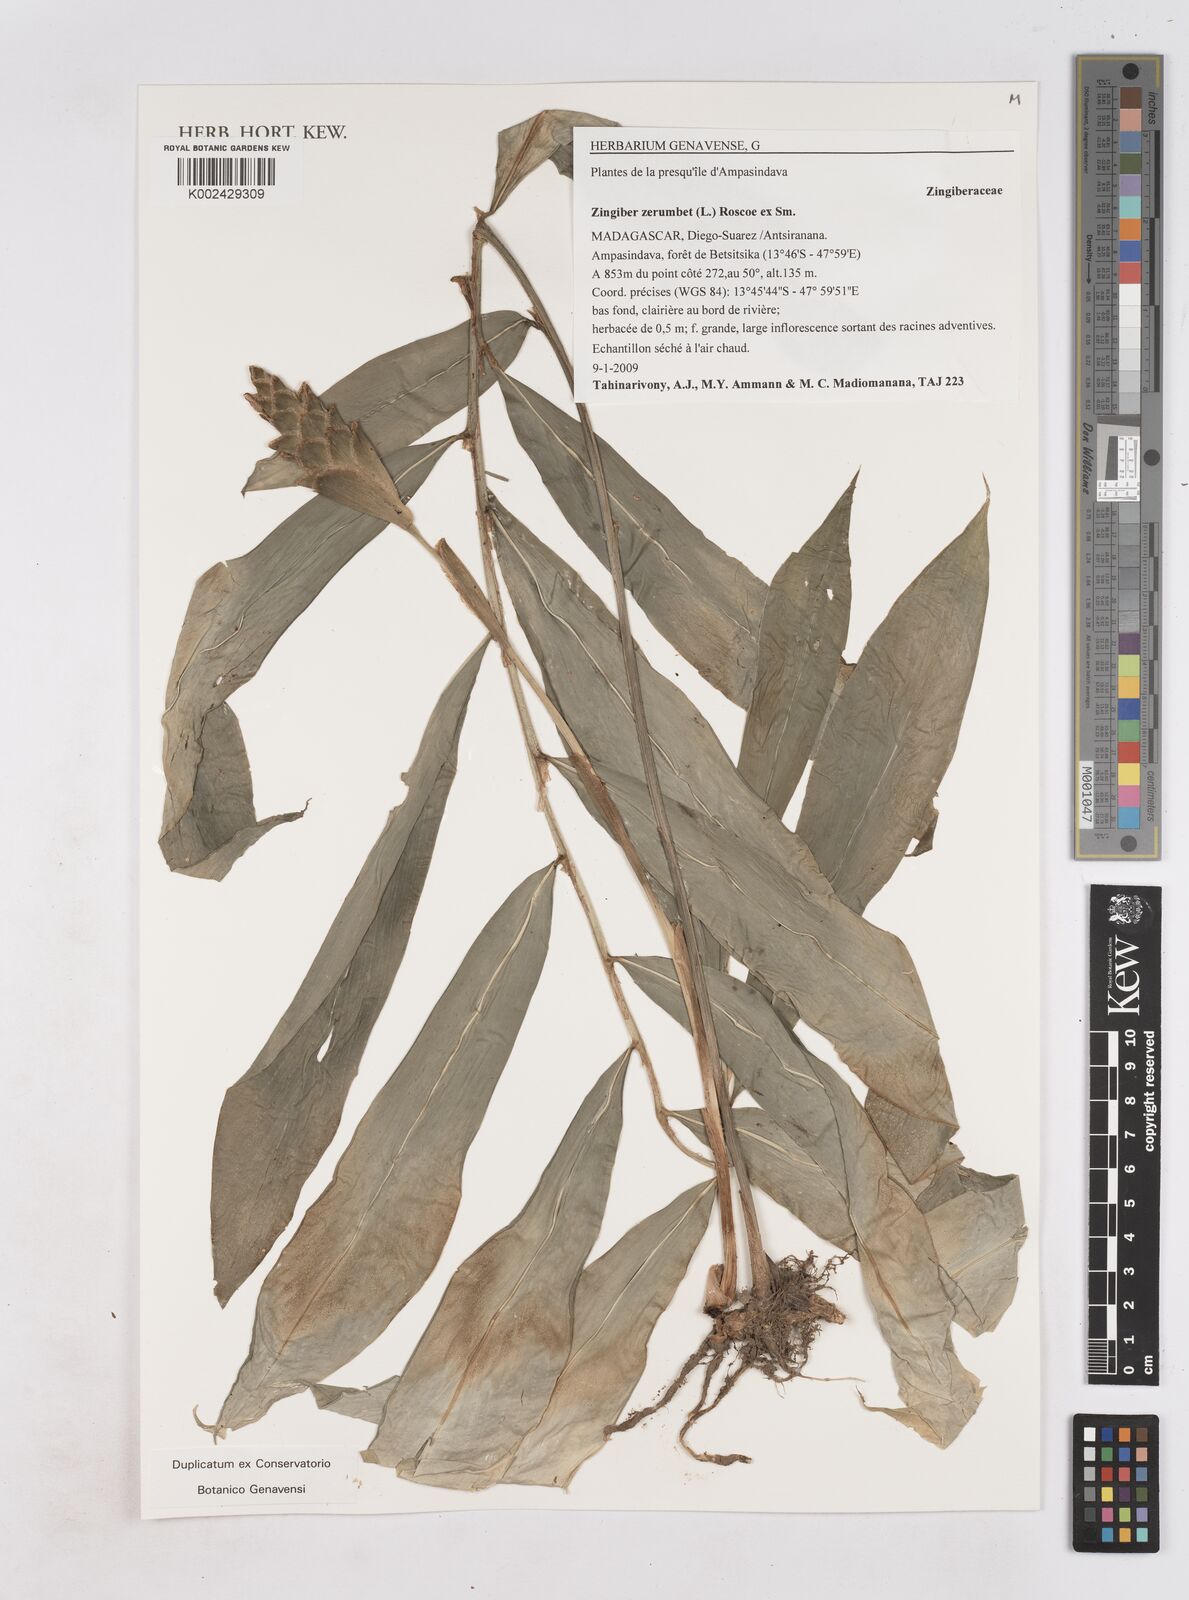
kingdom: Plantae
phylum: Tracheophyta
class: Liliopsida
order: Zingiberales
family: Zingiberaceae
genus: Zingiber
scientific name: Zingiber zerumbet
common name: Bitter ginger
